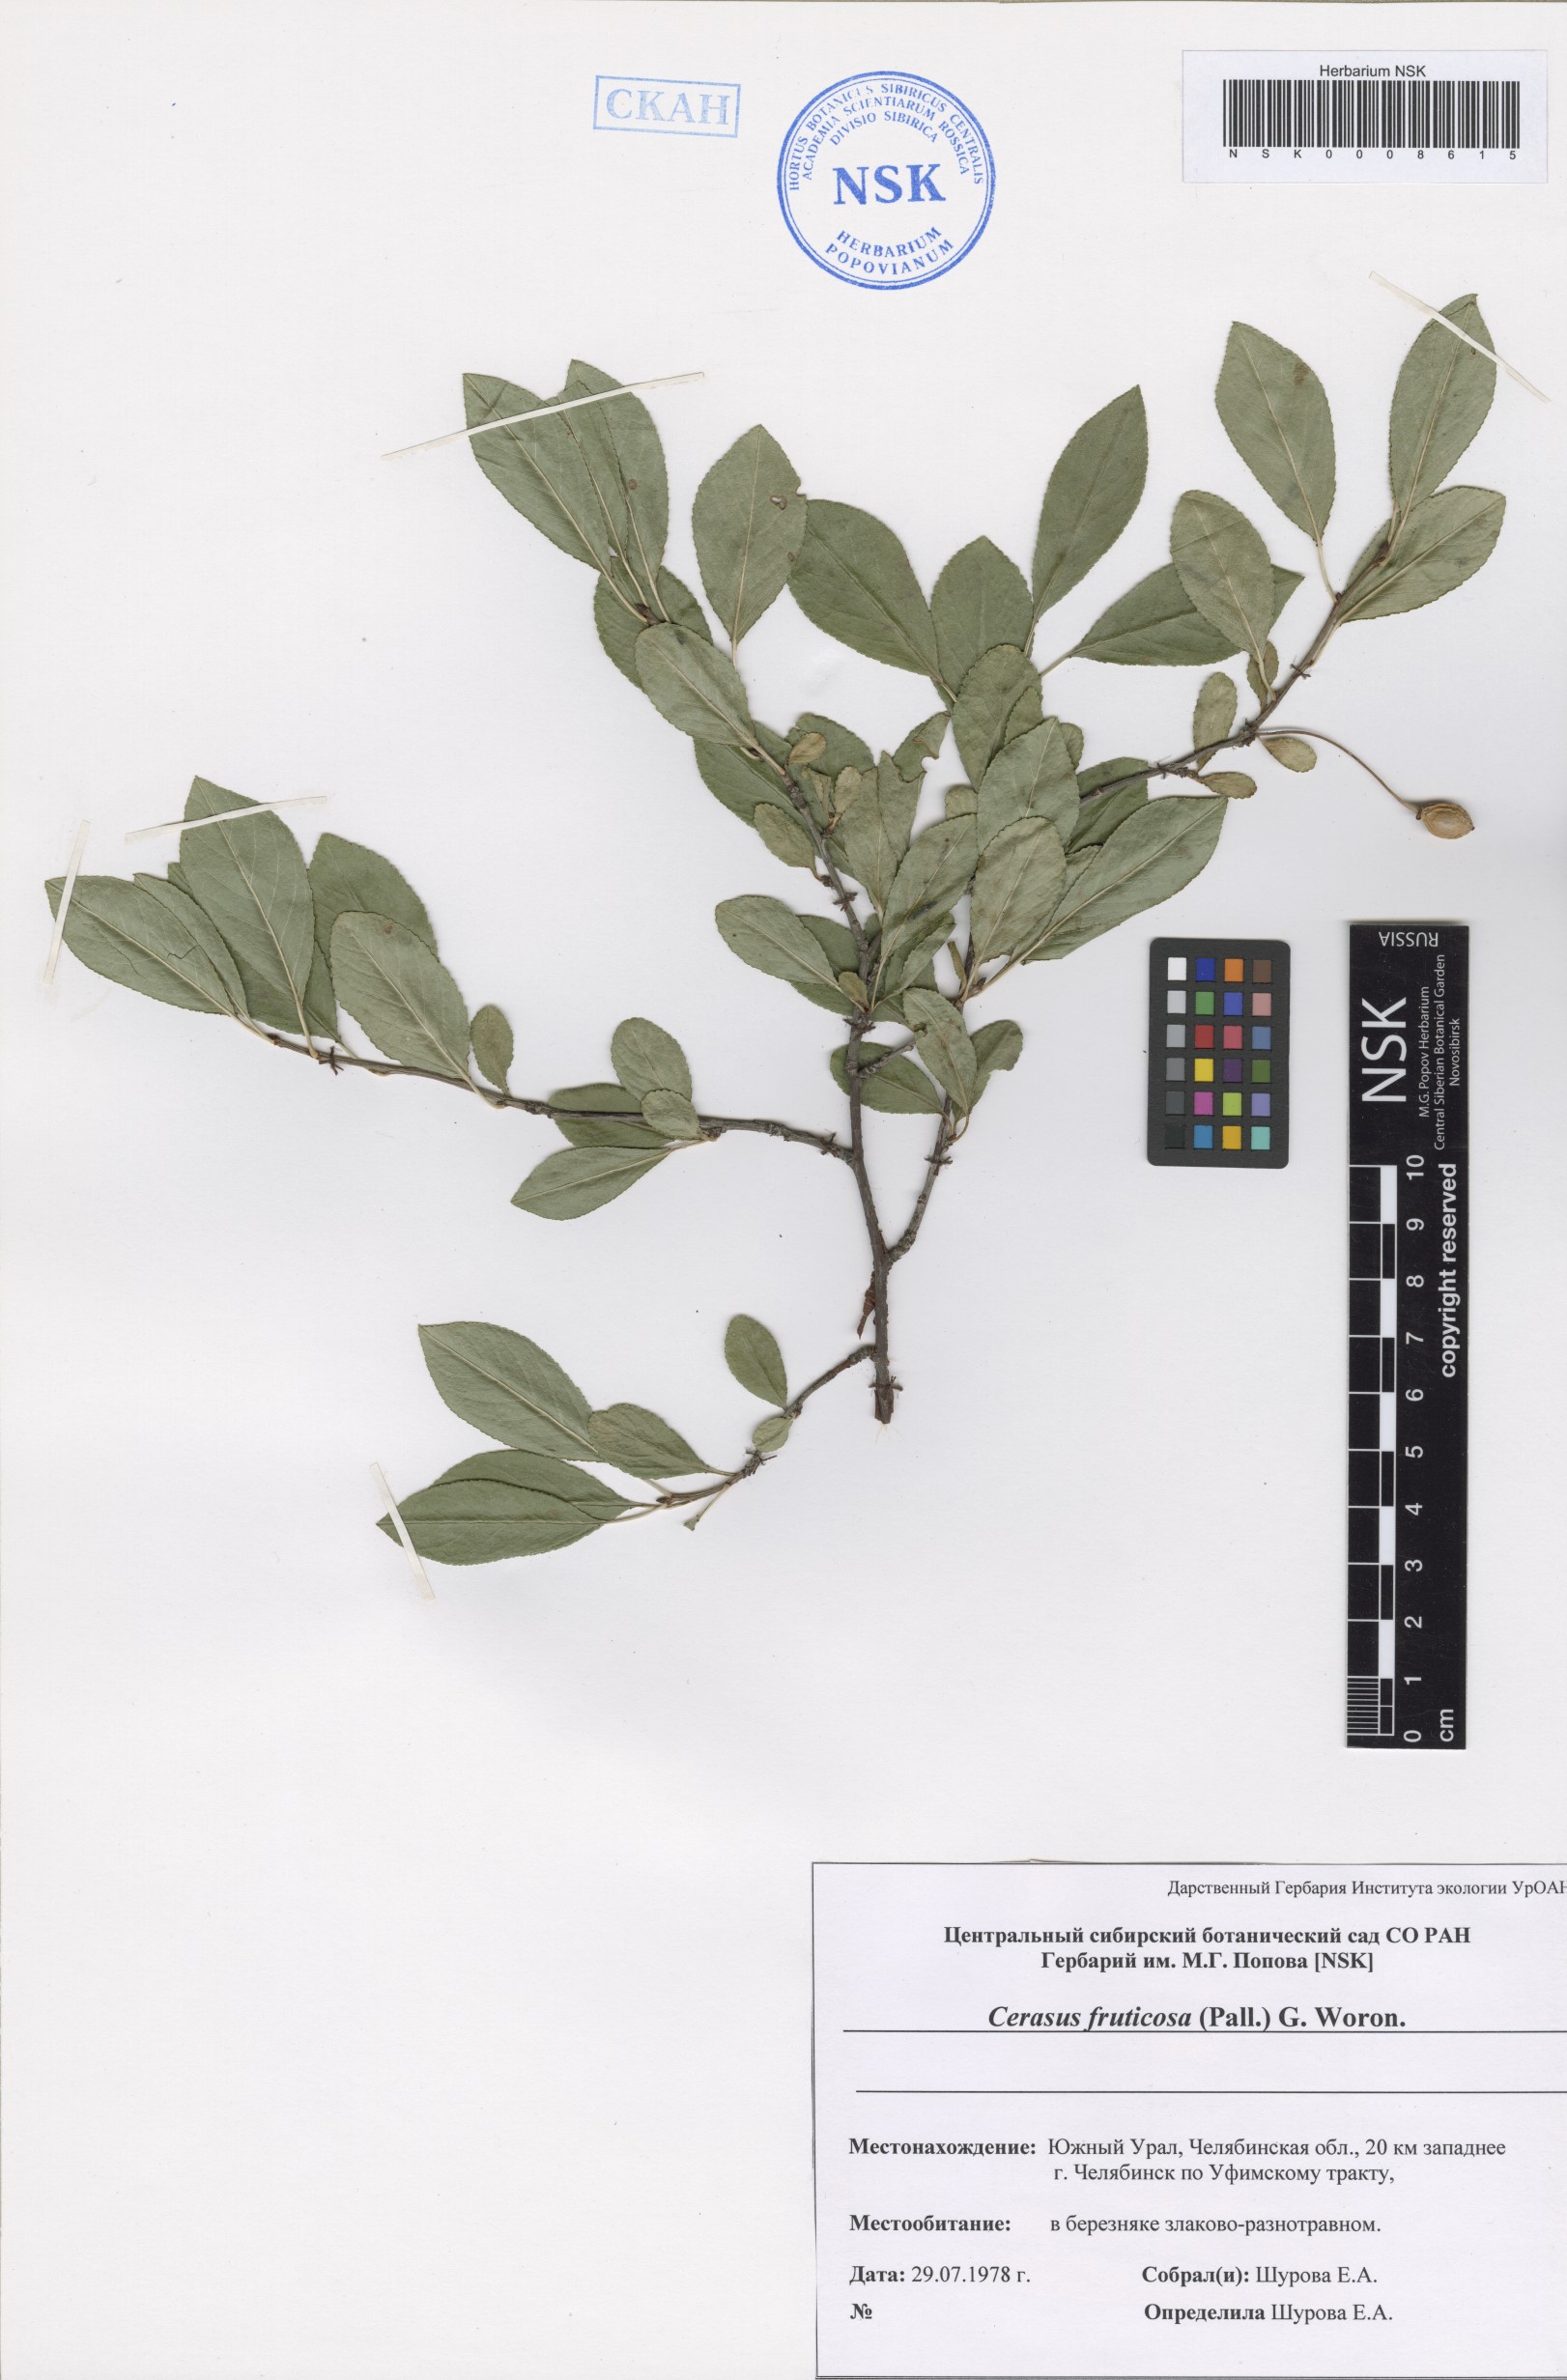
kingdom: Plantae
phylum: Tracheophyta
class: Magnoliopsida
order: Rosales
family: Rosaceae
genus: Prunus
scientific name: Prunus fruticosa
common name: European dwarf cherry
